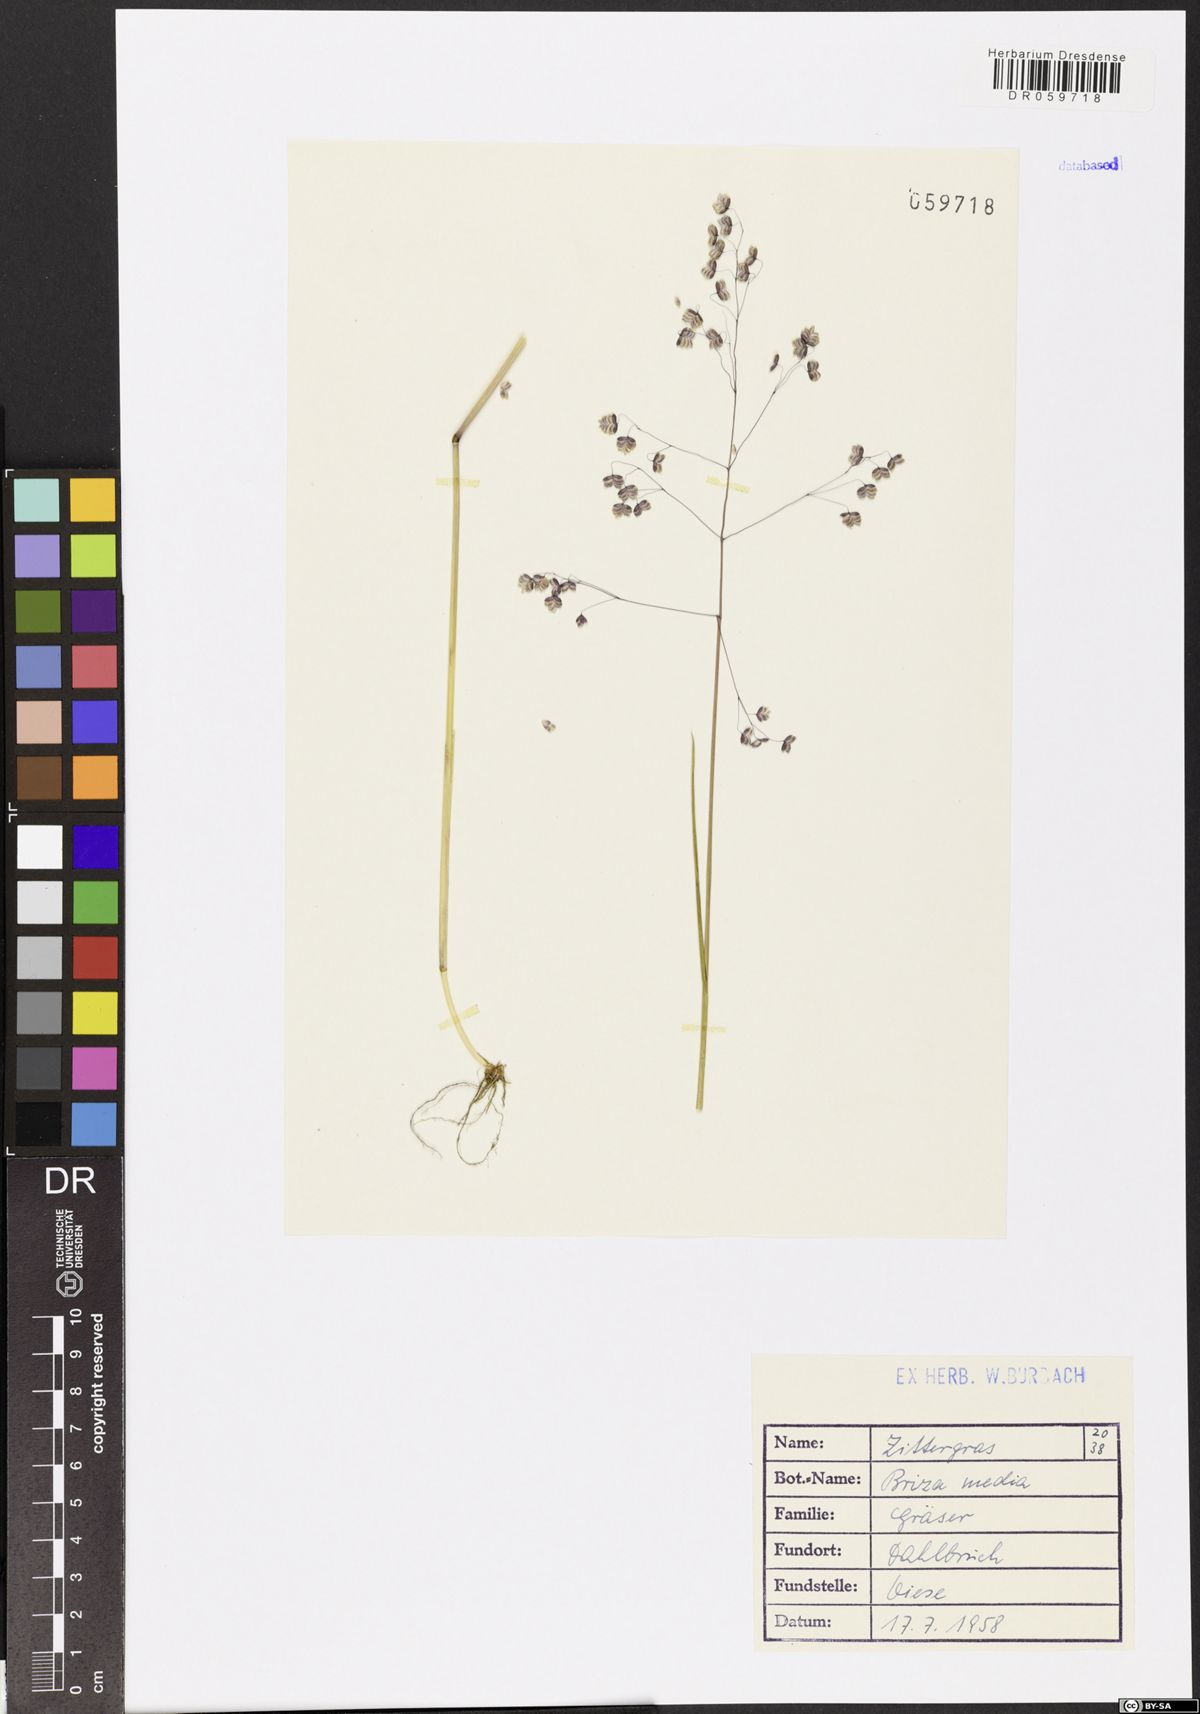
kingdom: Plantae
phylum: Tracheophyta
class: Liliopsida
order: Poales
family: Poaceae
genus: Briza
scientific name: Briza media
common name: Quaking grass
